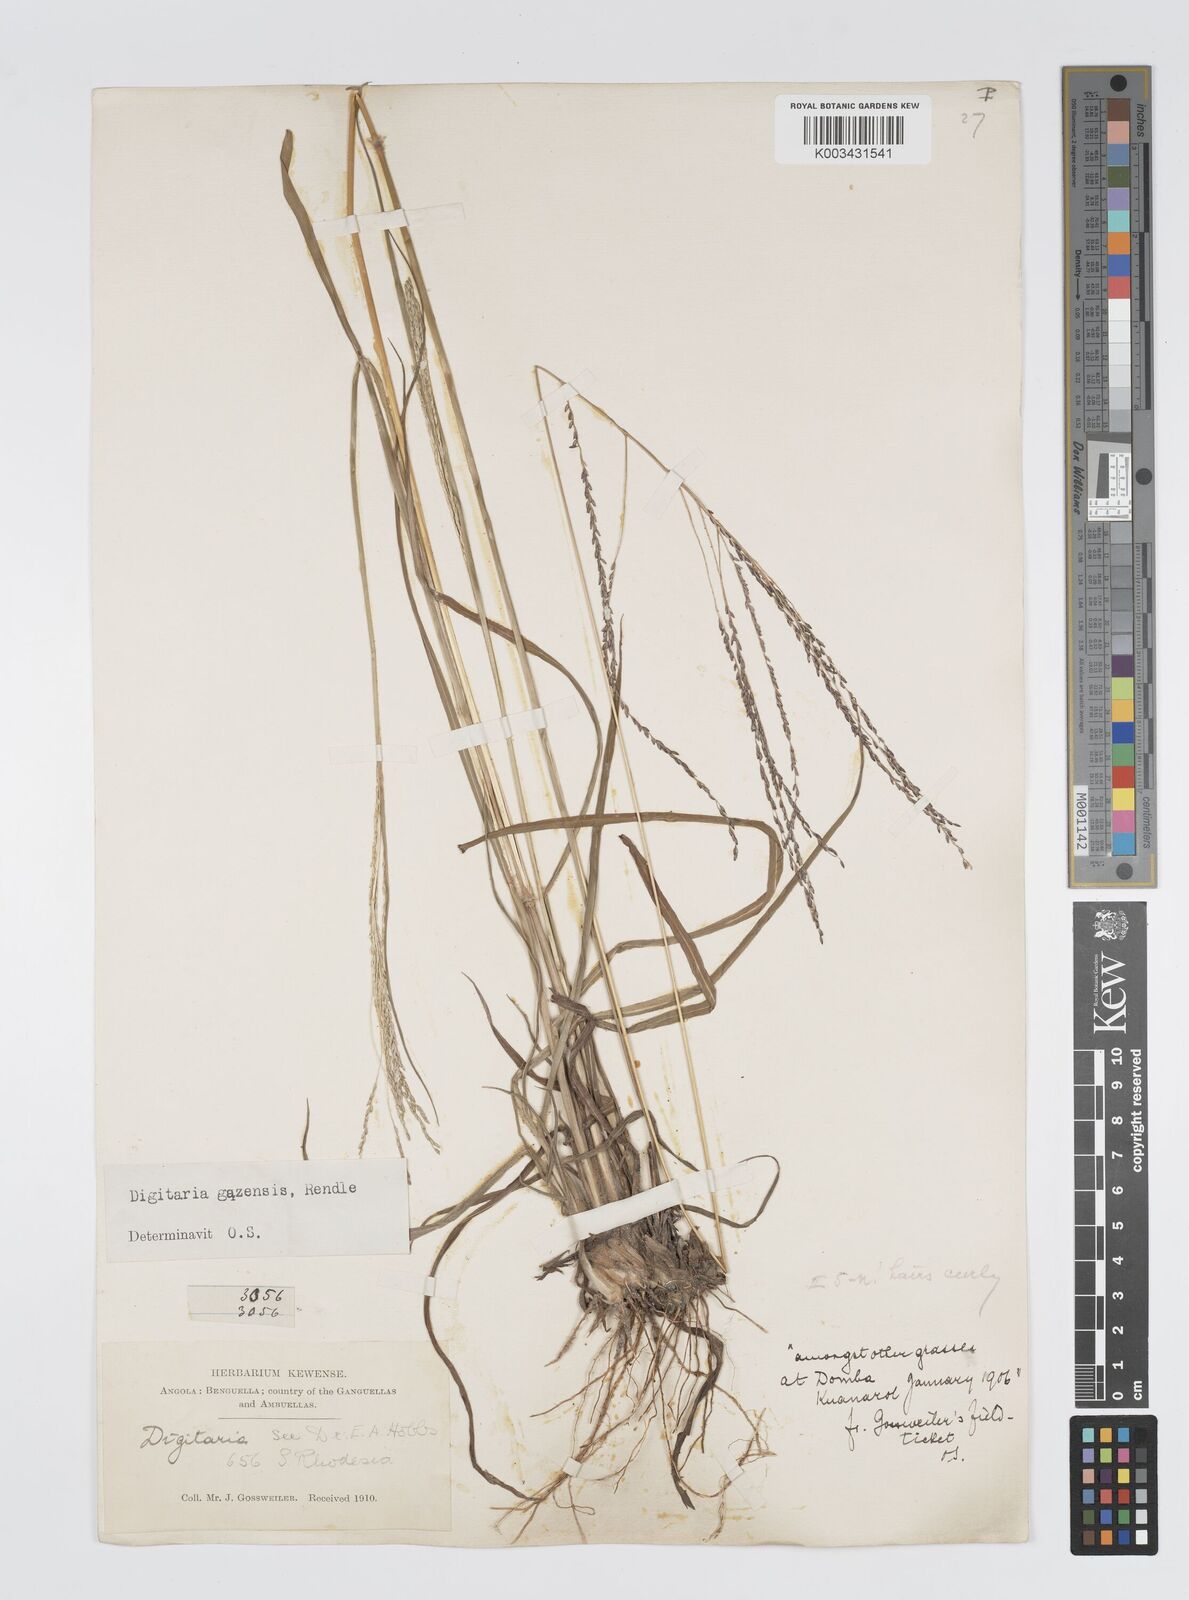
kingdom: Plantae
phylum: Tracheophyta
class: Liliopsida
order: Poales
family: Poaceae
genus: Digitaria
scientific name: Digitaria gazensis
